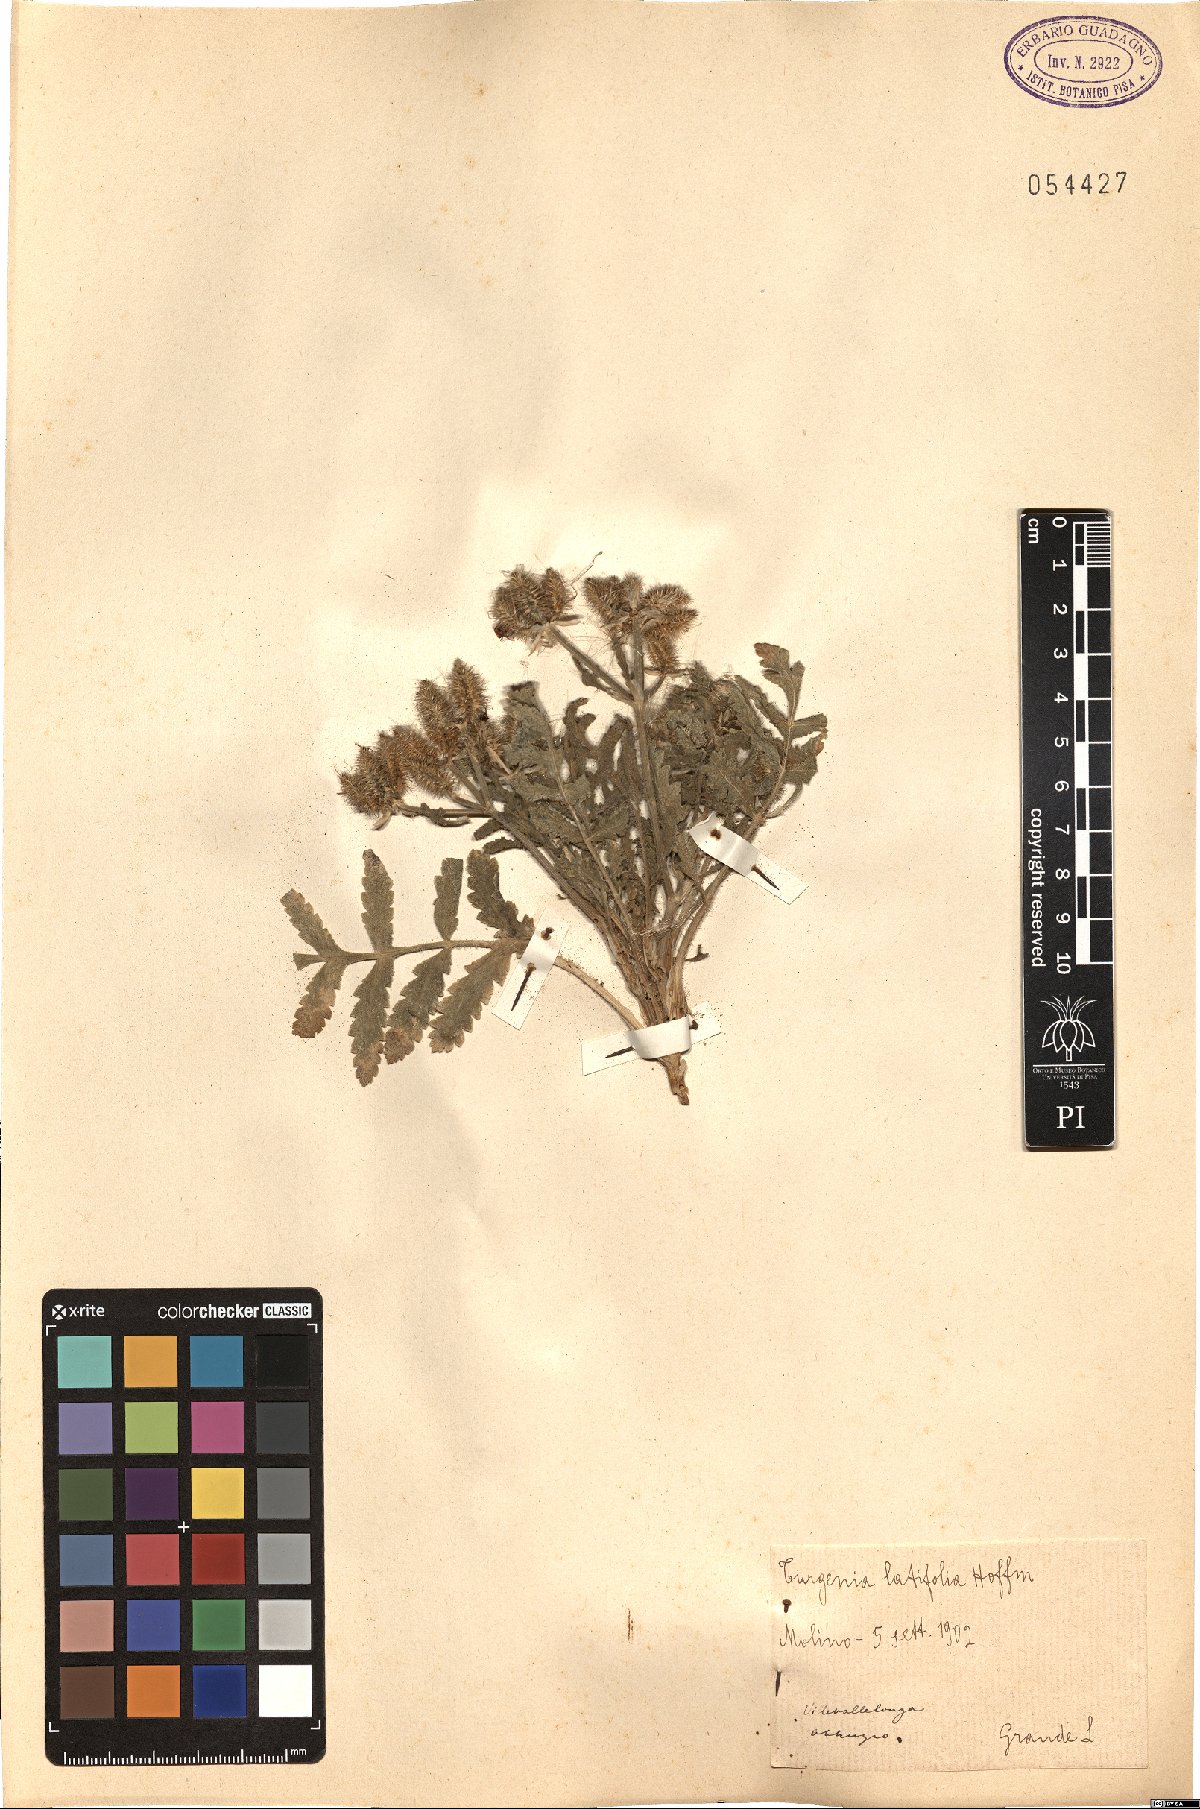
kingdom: Plantae
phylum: Tracheophyta
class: Magnoliopsida
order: Apiales
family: Apiaceae
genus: Turgenia
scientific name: Turgenia latifolia
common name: Greater bur-parsley
